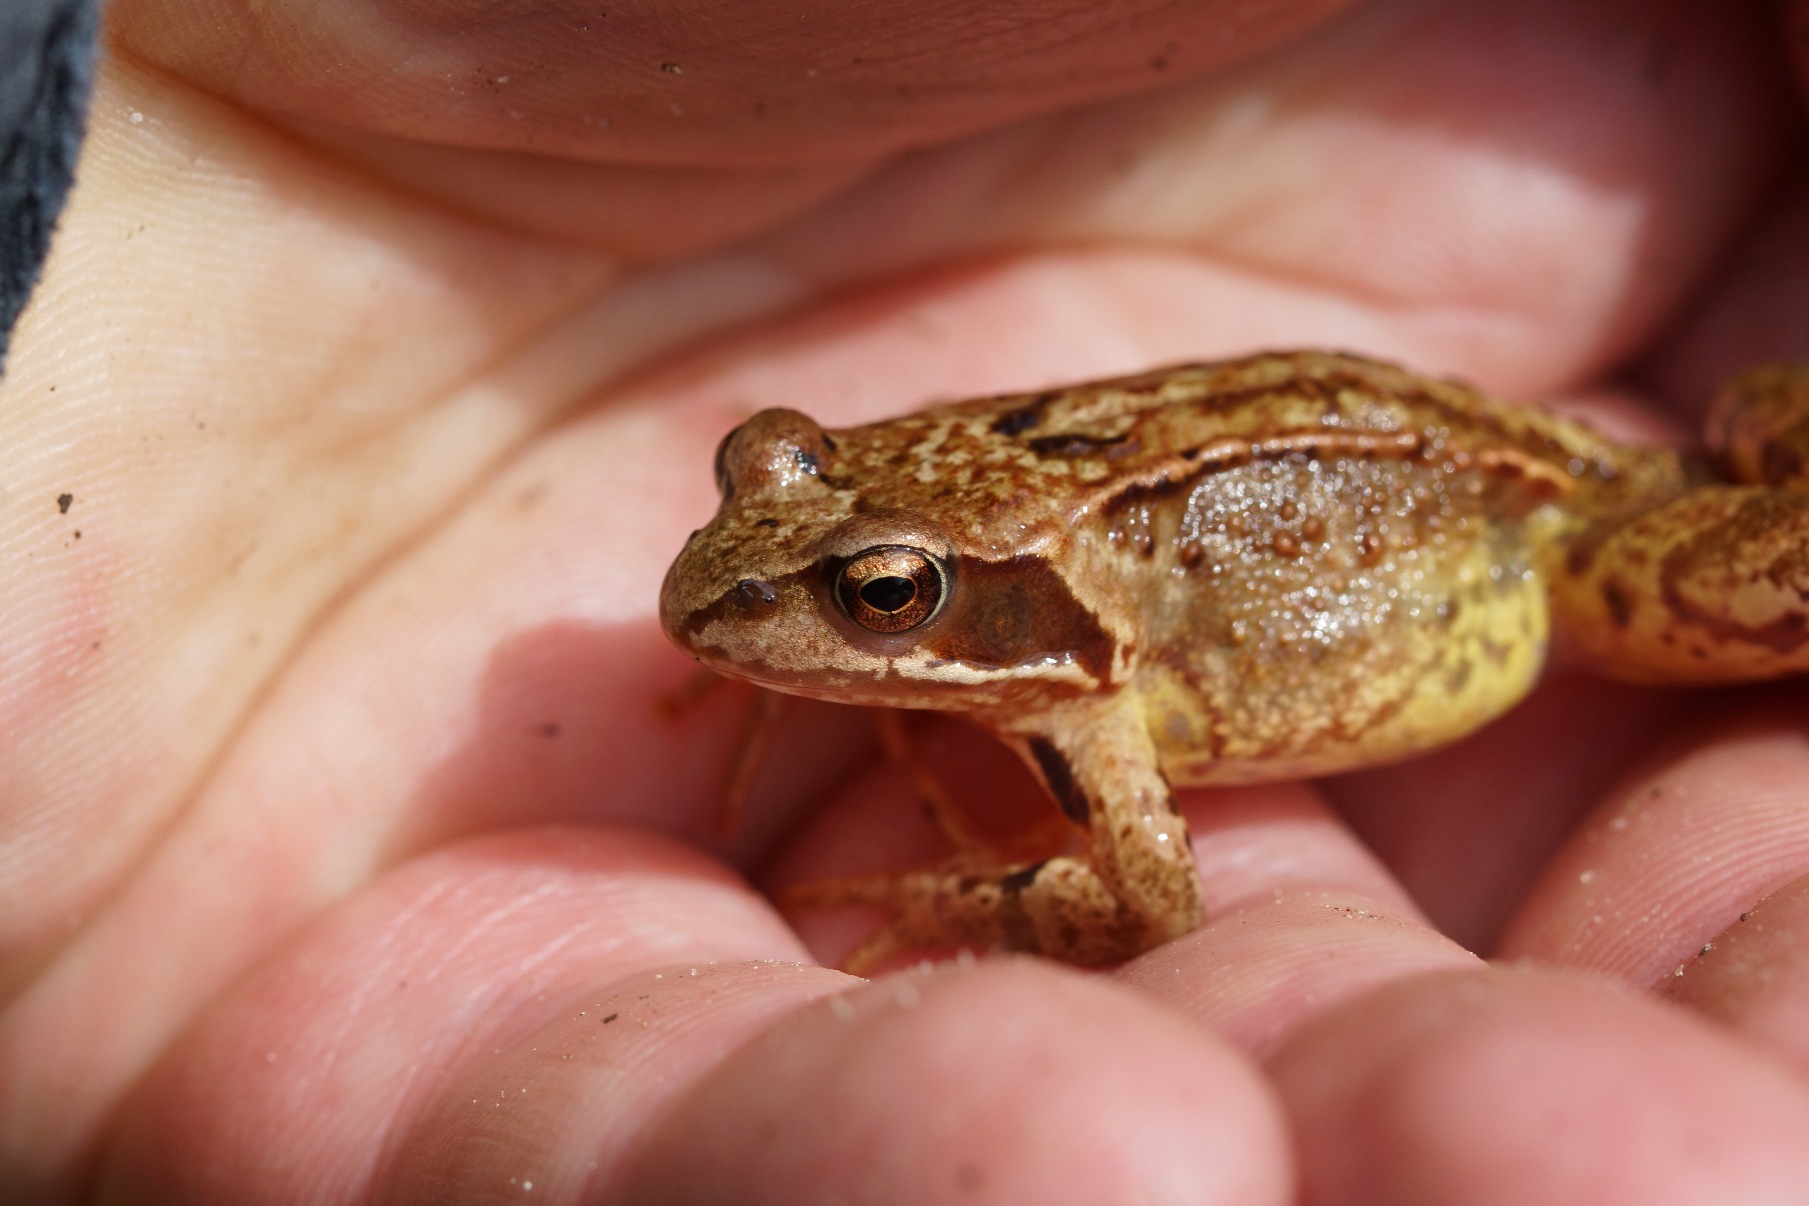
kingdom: Animalia
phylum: Chordata
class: Amphibia
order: Anura
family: Ranidae
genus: Rana
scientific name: Rana temporaria
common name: Butsnudet frø
